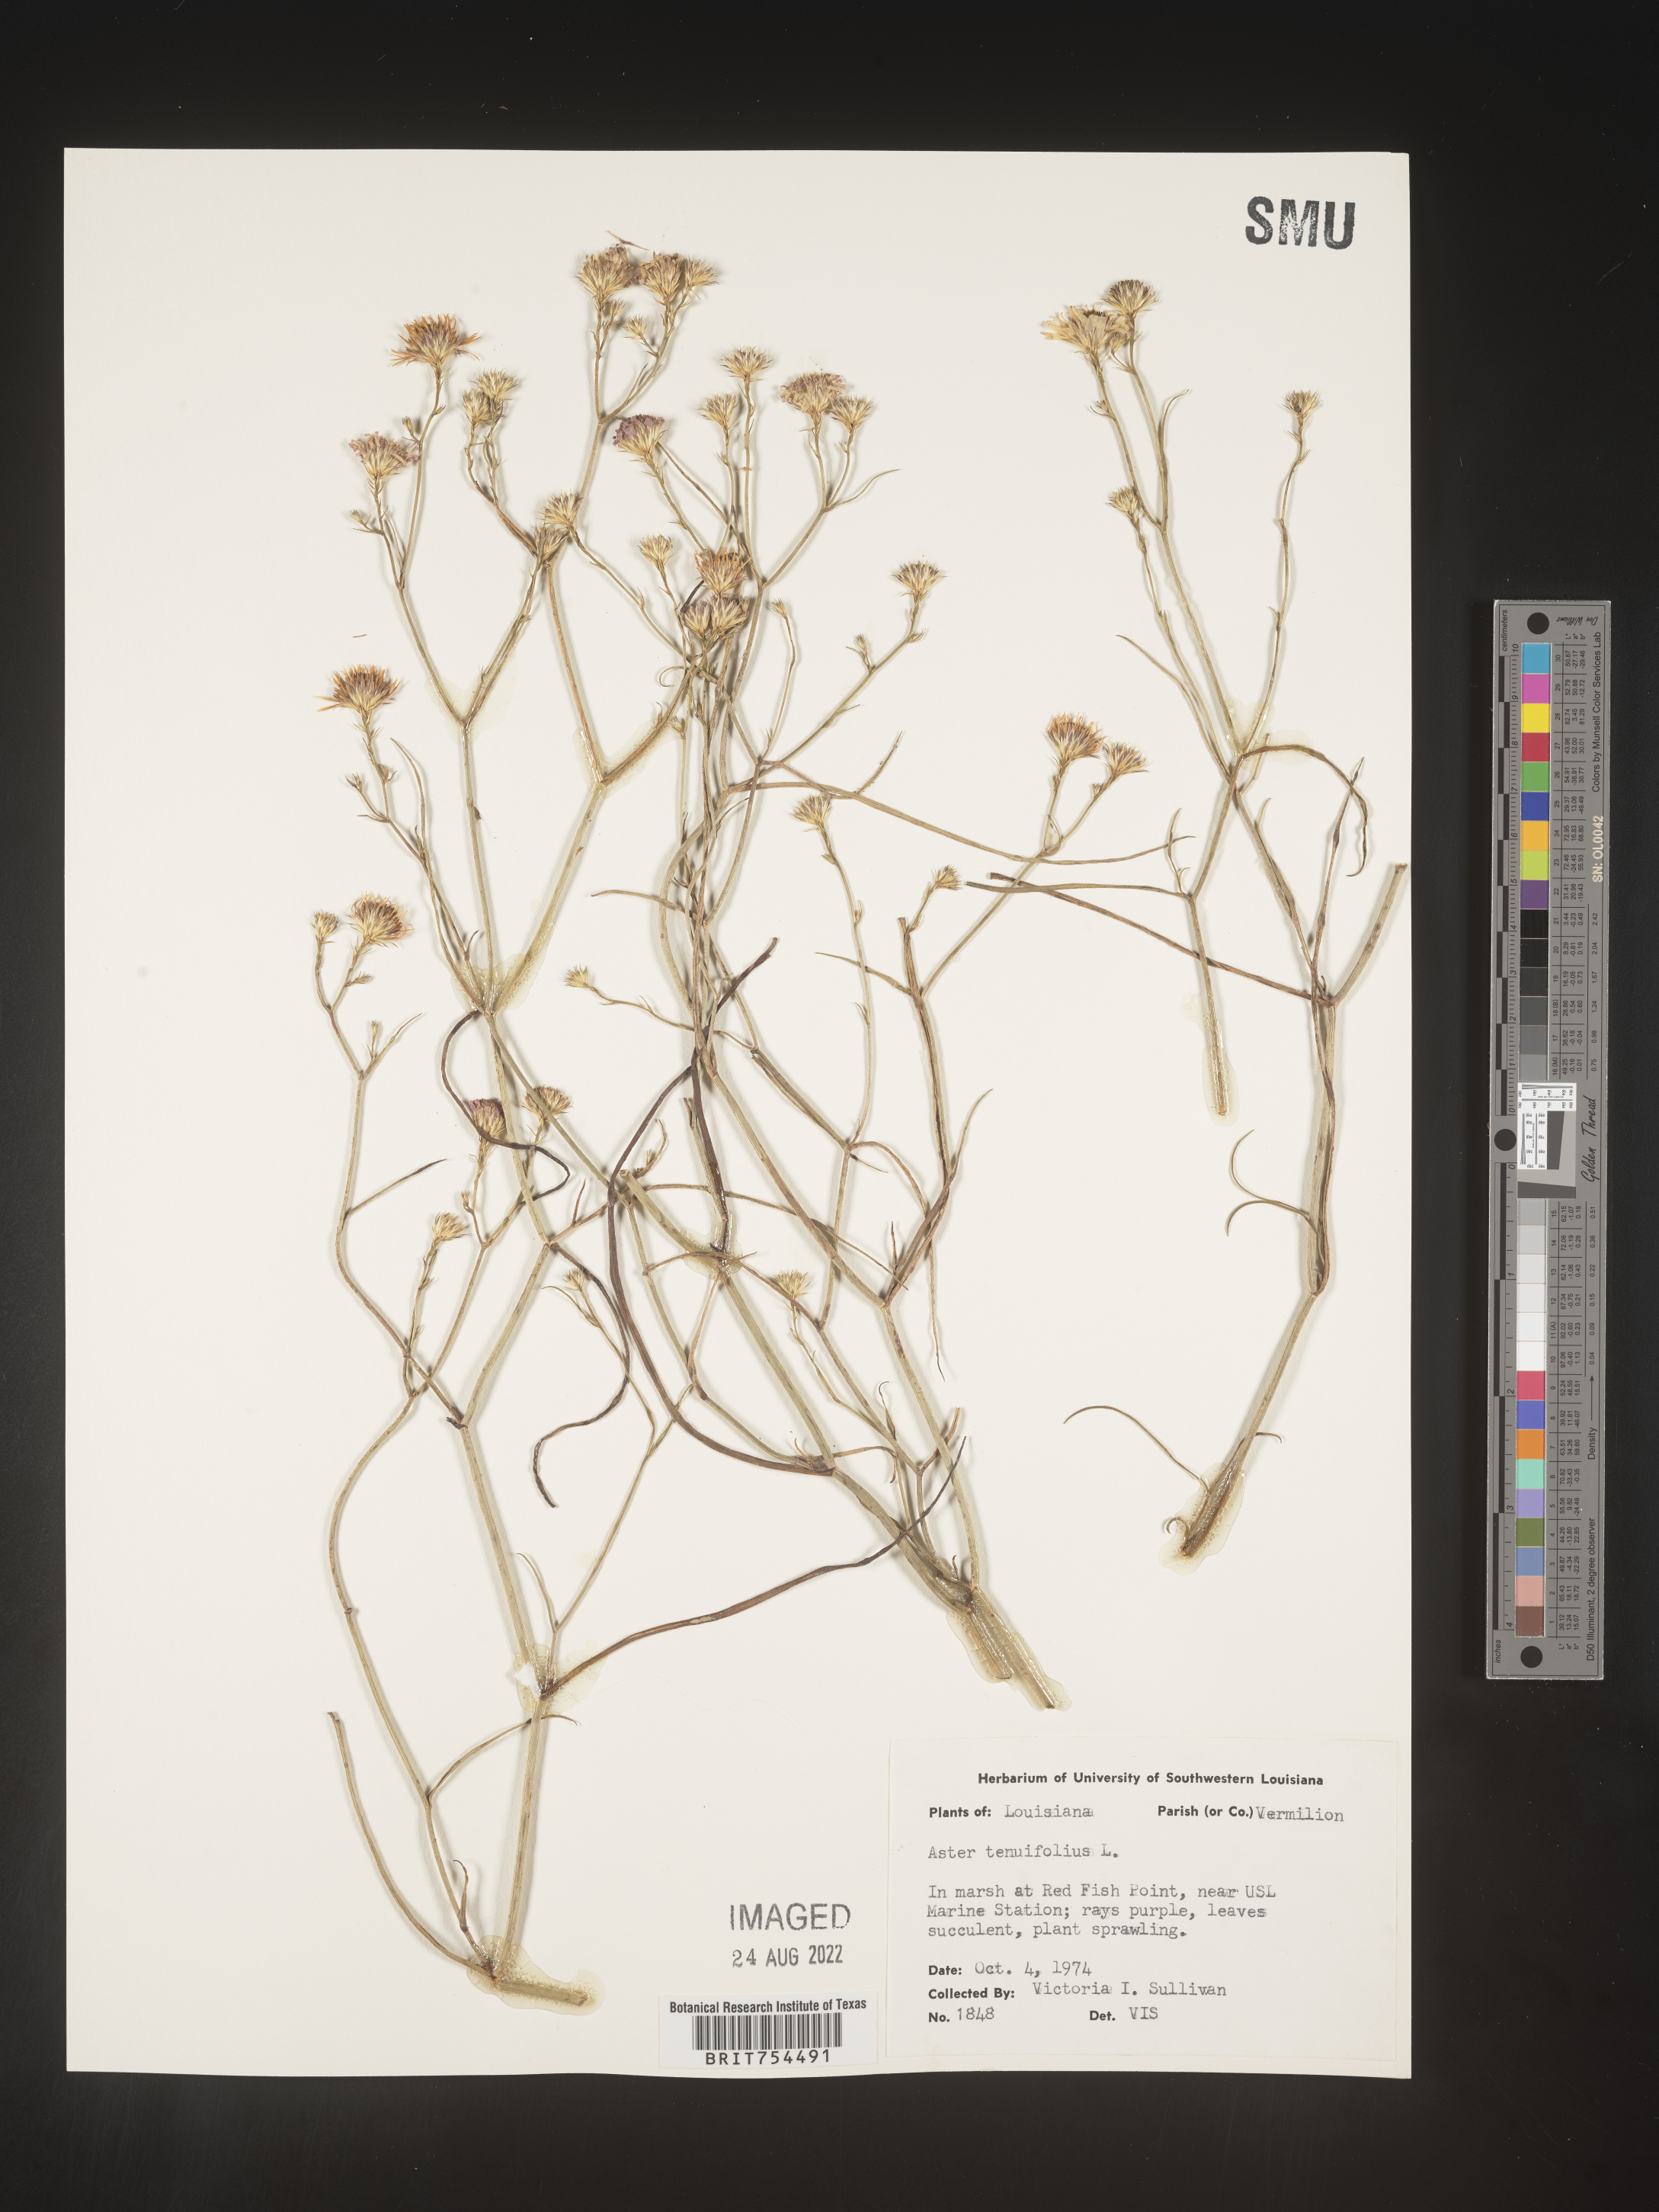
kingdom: Plantae
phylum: Tracheophyta
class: Magnoliopsida
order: Asterales
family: Asteraceae
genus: Symphyotrichum
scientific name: Symphyotrichum tenuifolium
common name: Perennial salt-marsh aster
